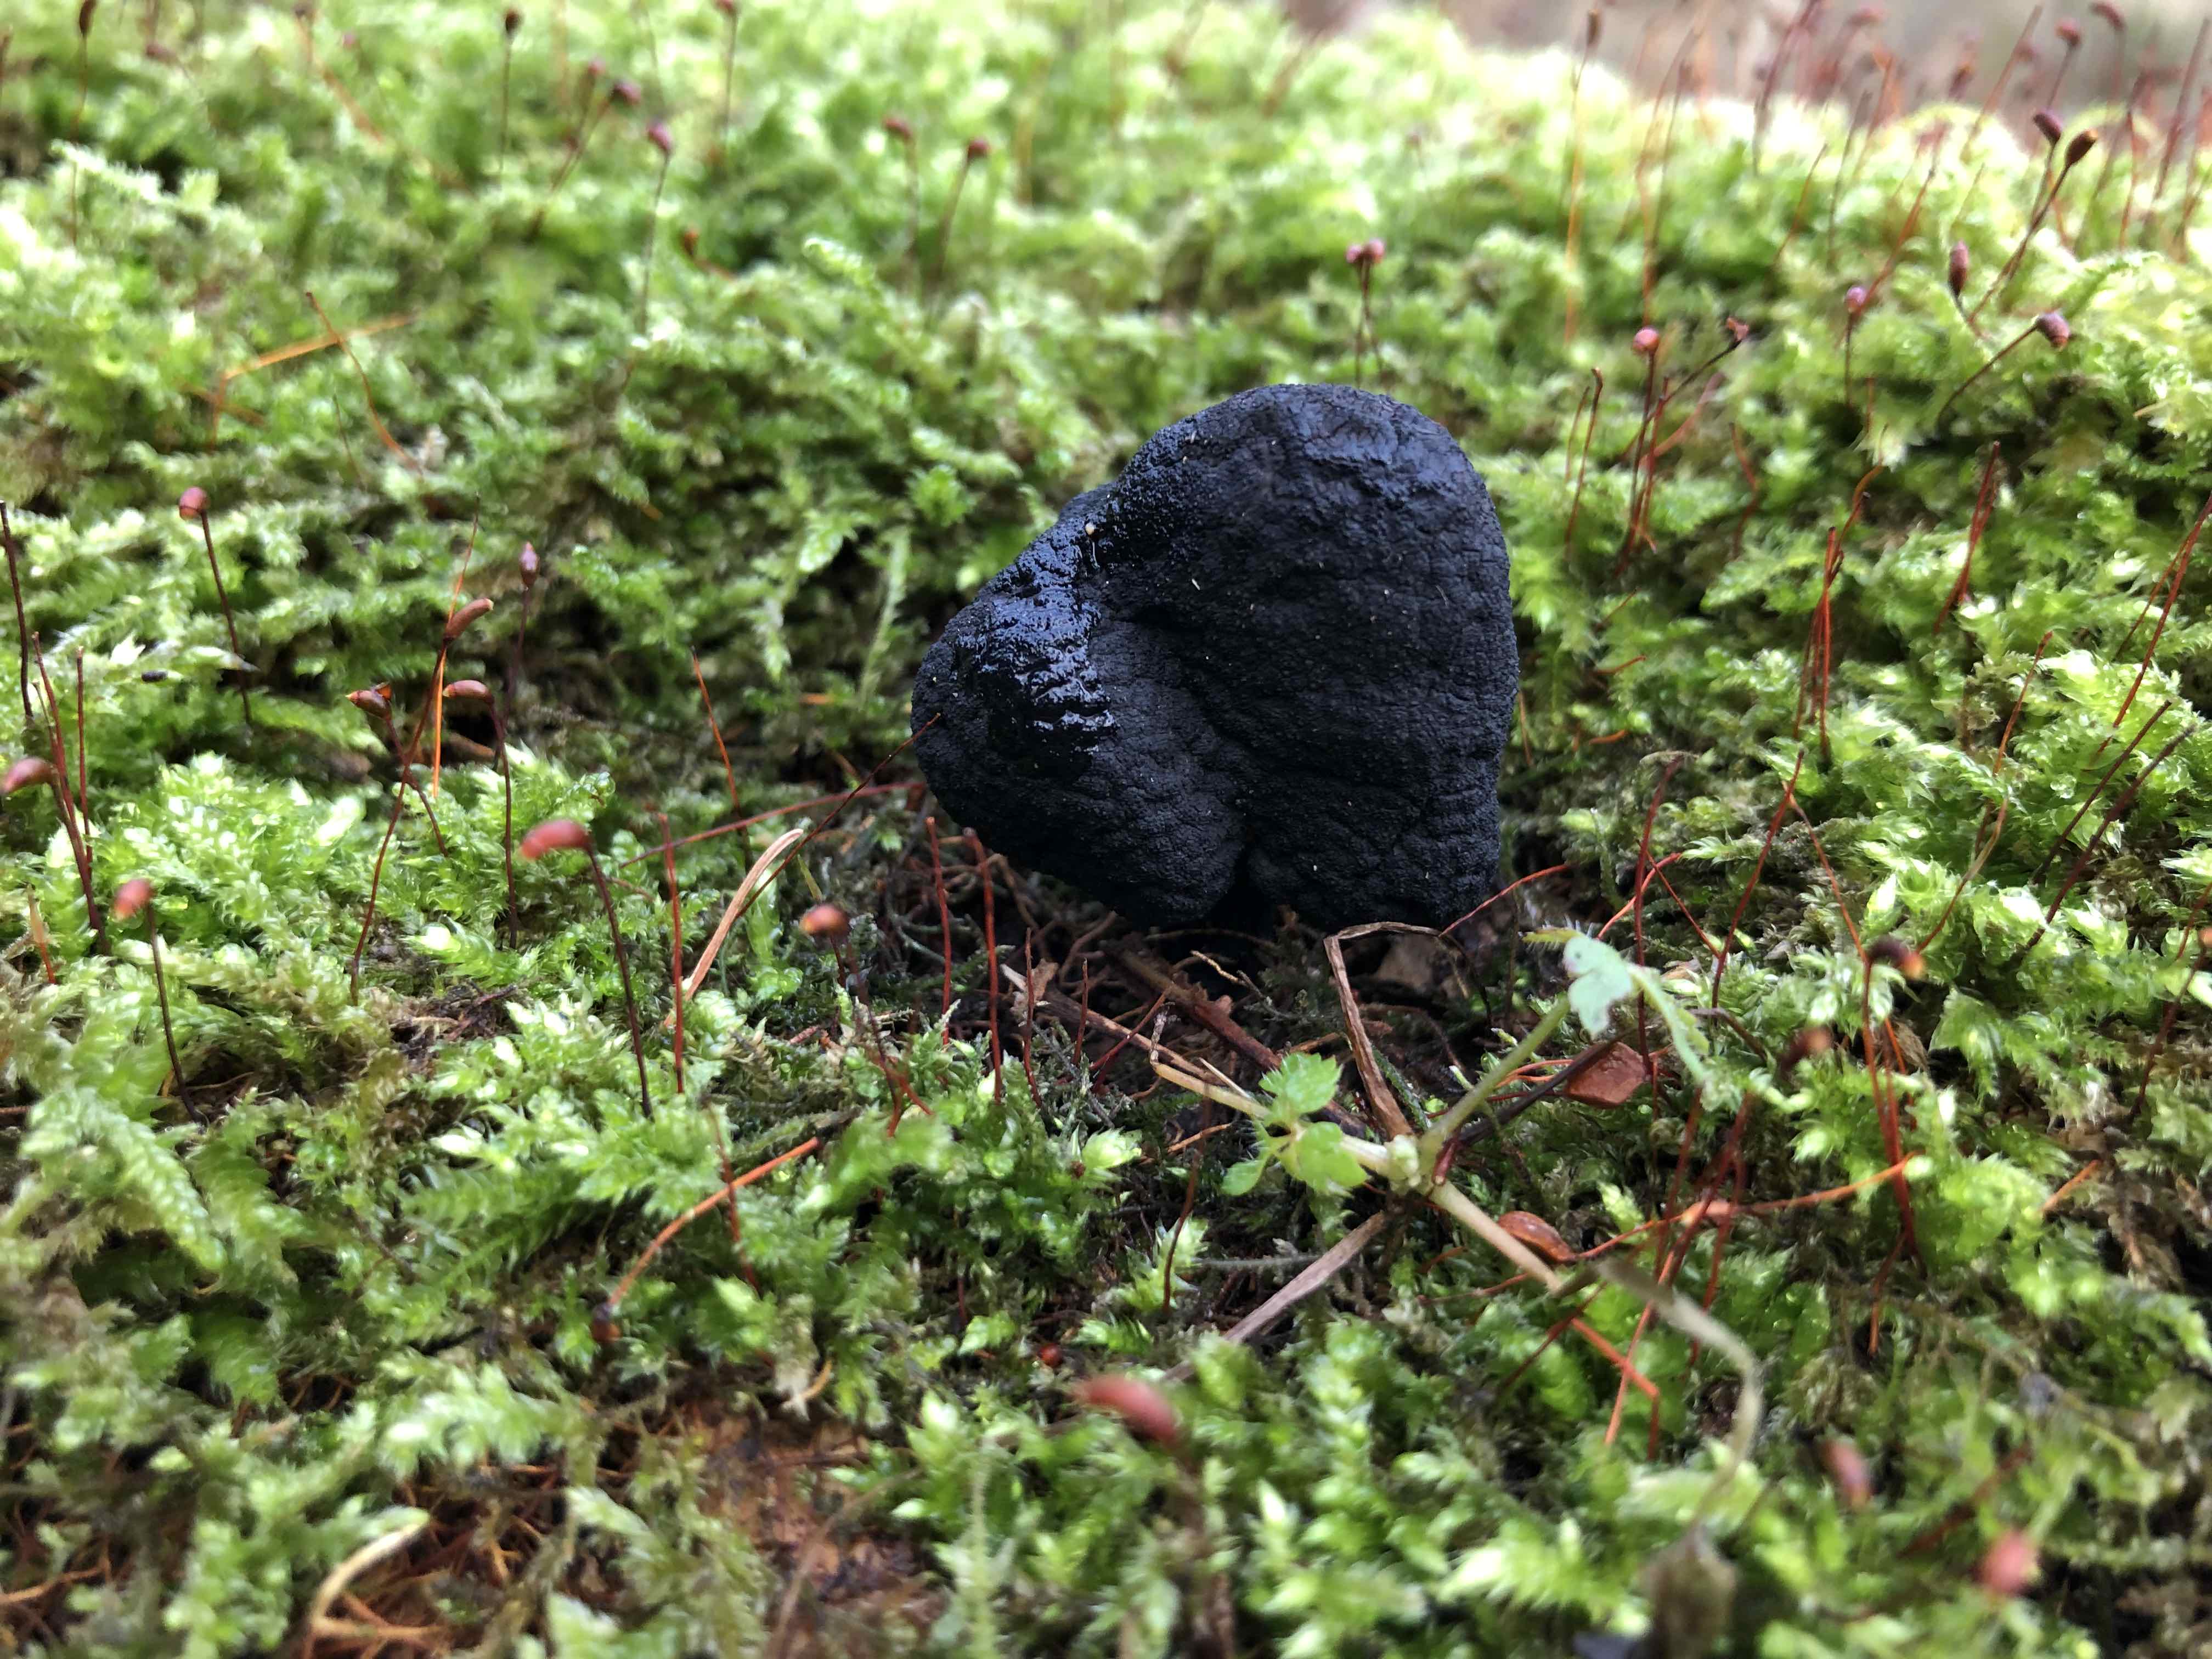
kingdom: Fungi
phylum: Ascomycota
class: Sordariomycetes
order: Xylariales
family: Xylariaceae
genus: Xylaria
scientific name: Xylaria polymorpha
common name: kølle-stødsvamp
